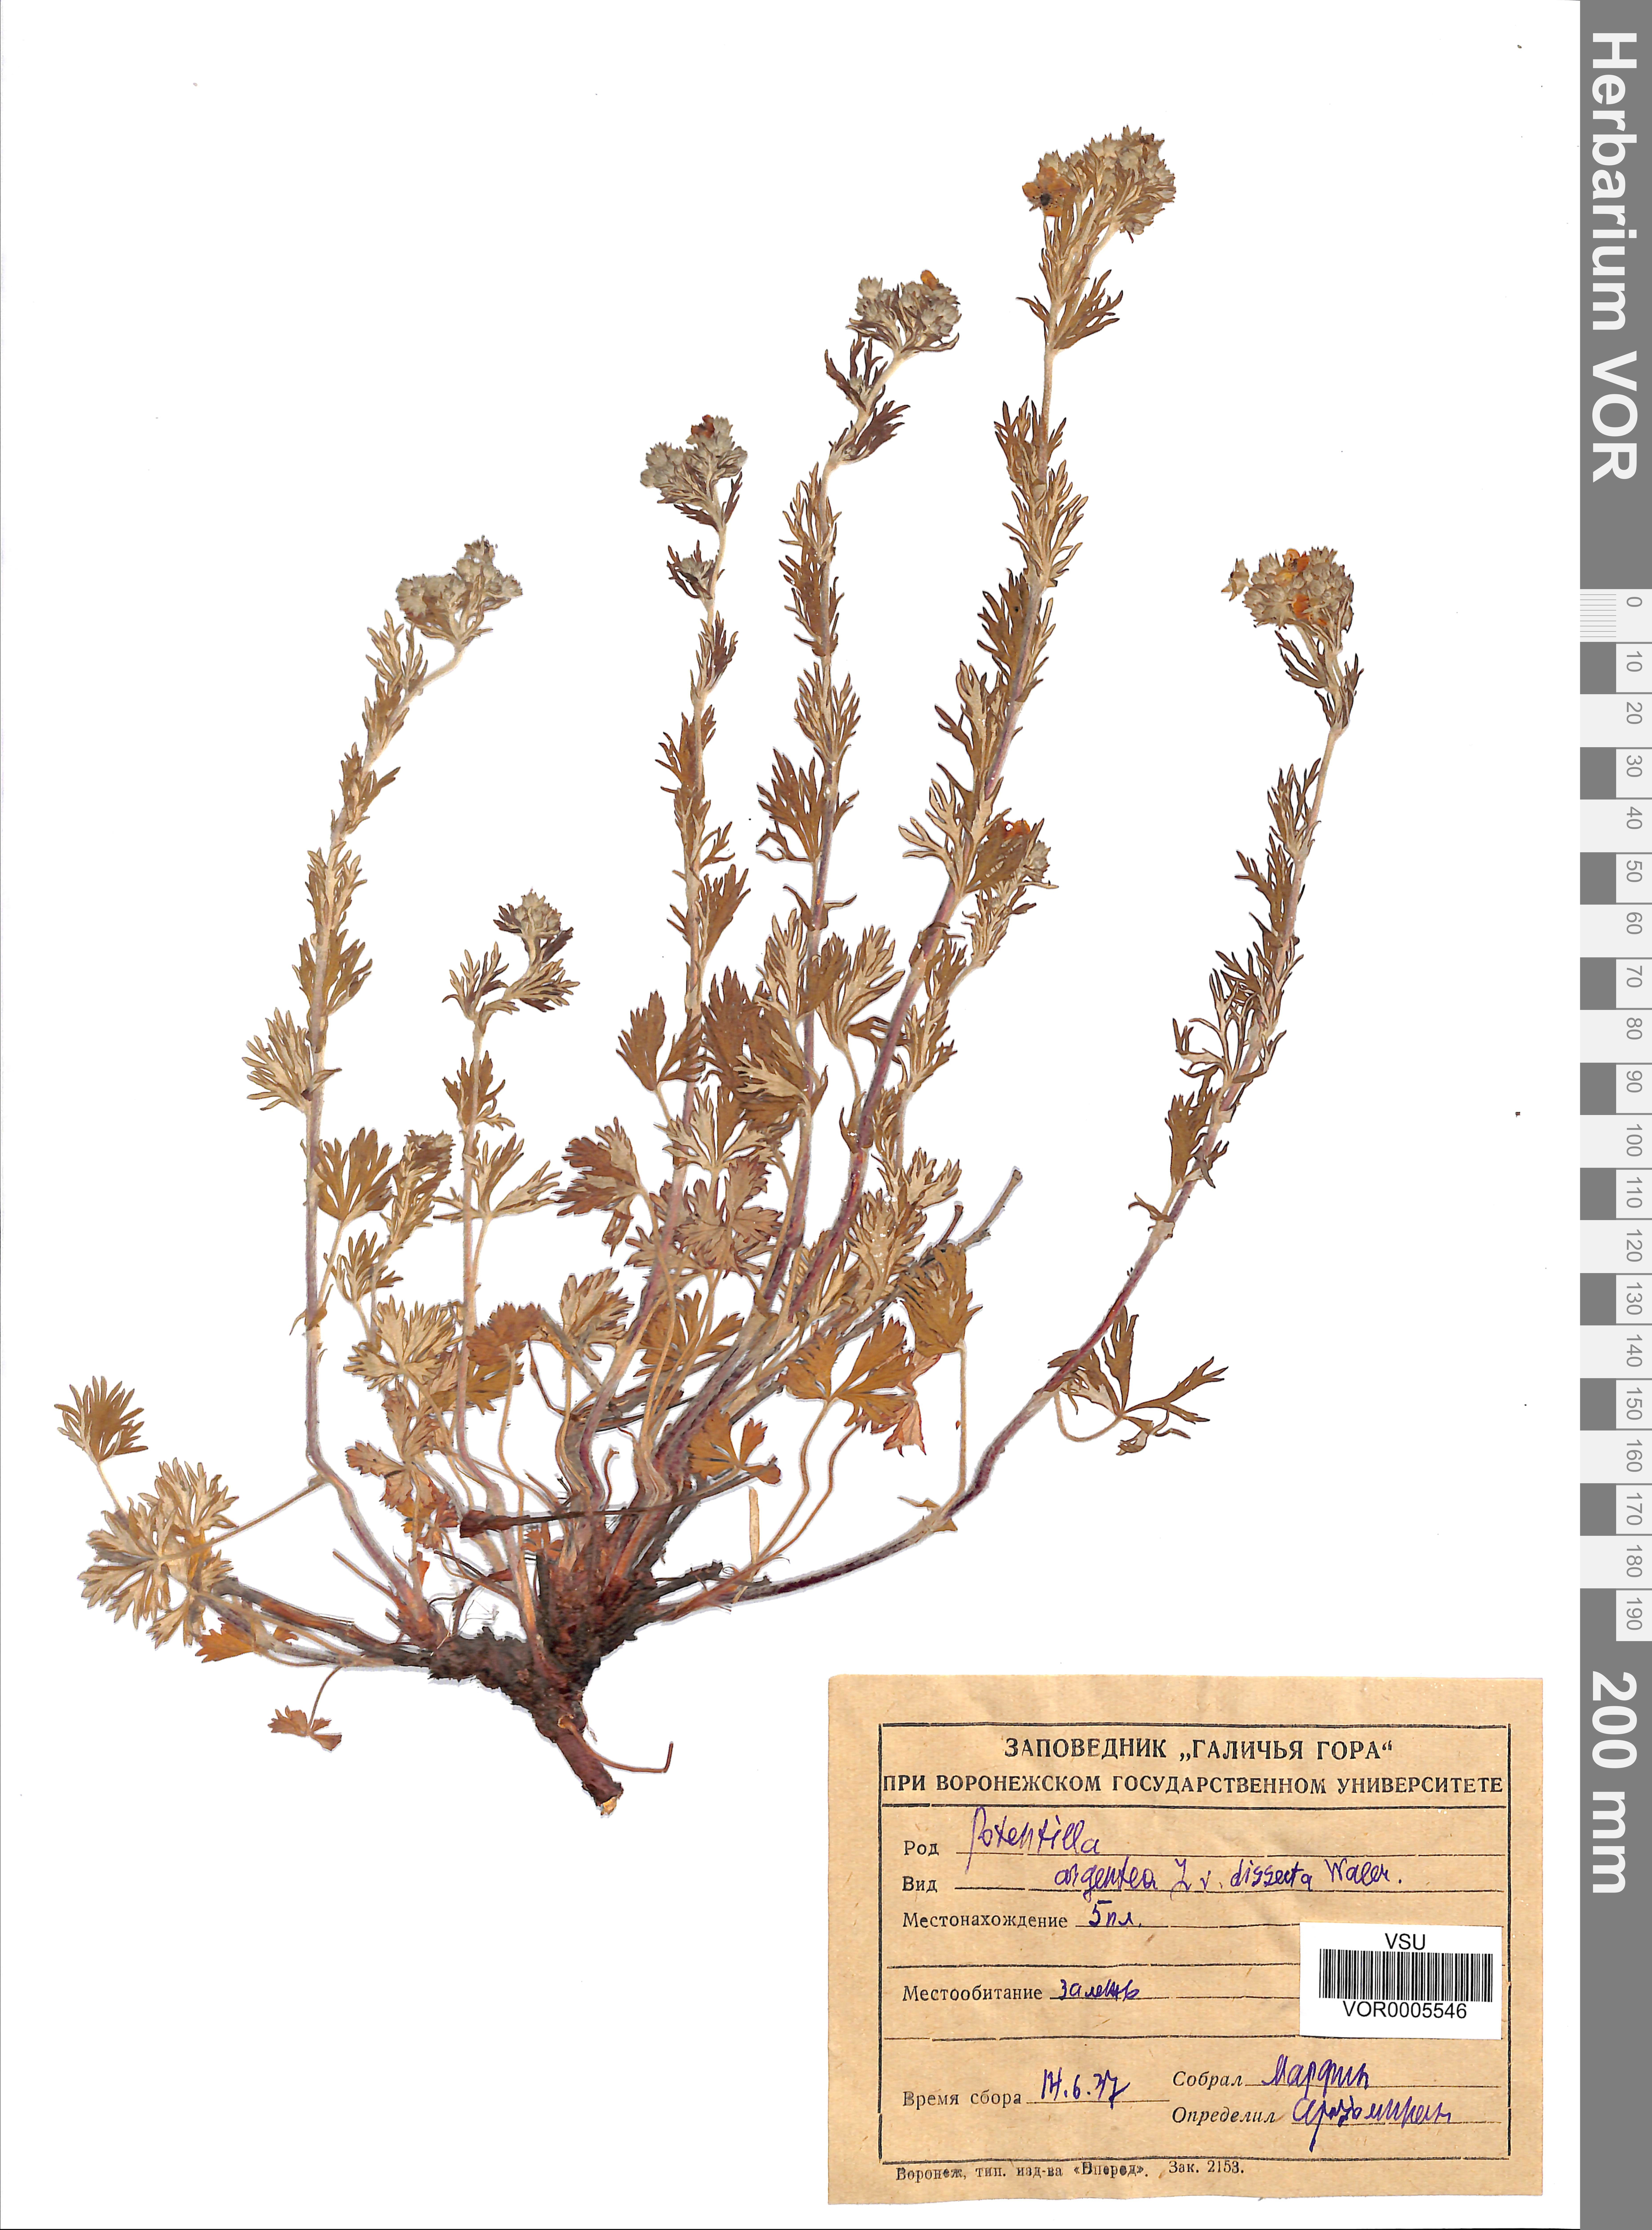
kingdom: Plantae
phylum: Tracheophyta
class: Magnoliopsida
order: Rosales
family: Rosaceae
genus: Potentilla
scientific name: Potentilla argentea
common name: Hoary cinquefoil
